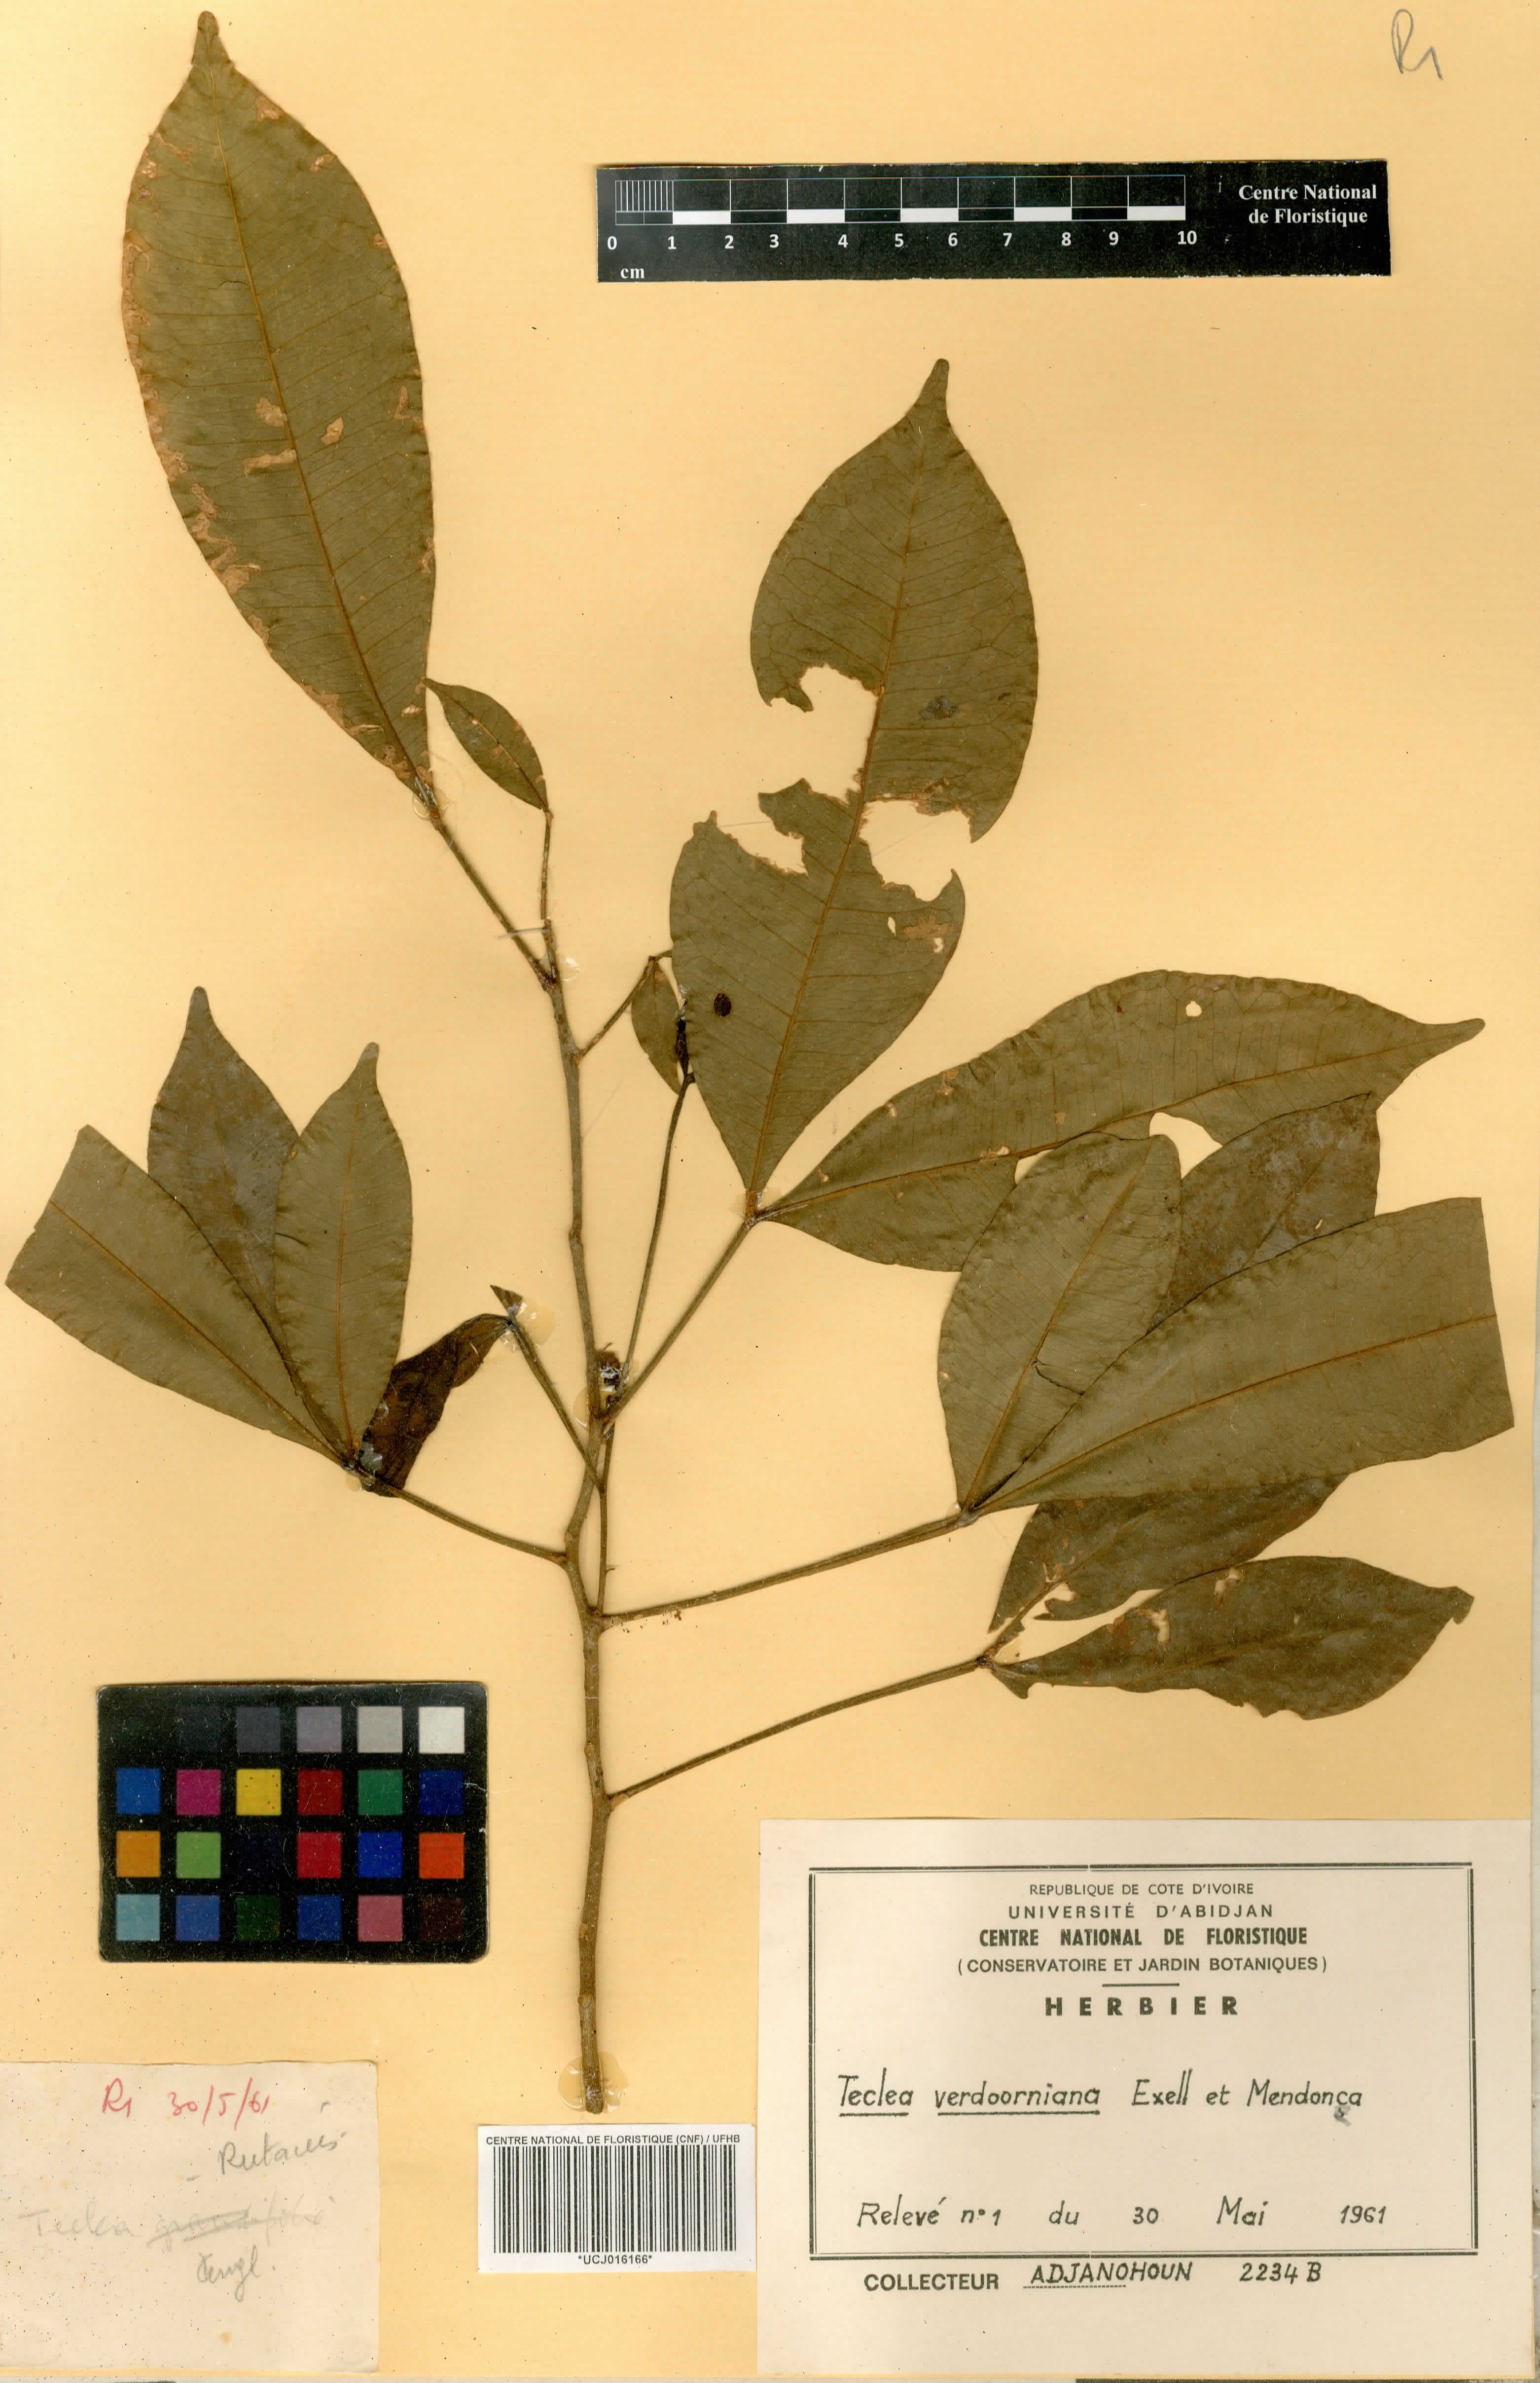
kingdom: Plantae
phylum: Tracheophyta
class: Magnoliopsida
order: Sapindales
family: Rutaceae
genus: Vepris
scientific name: Vepris verdoorniana
